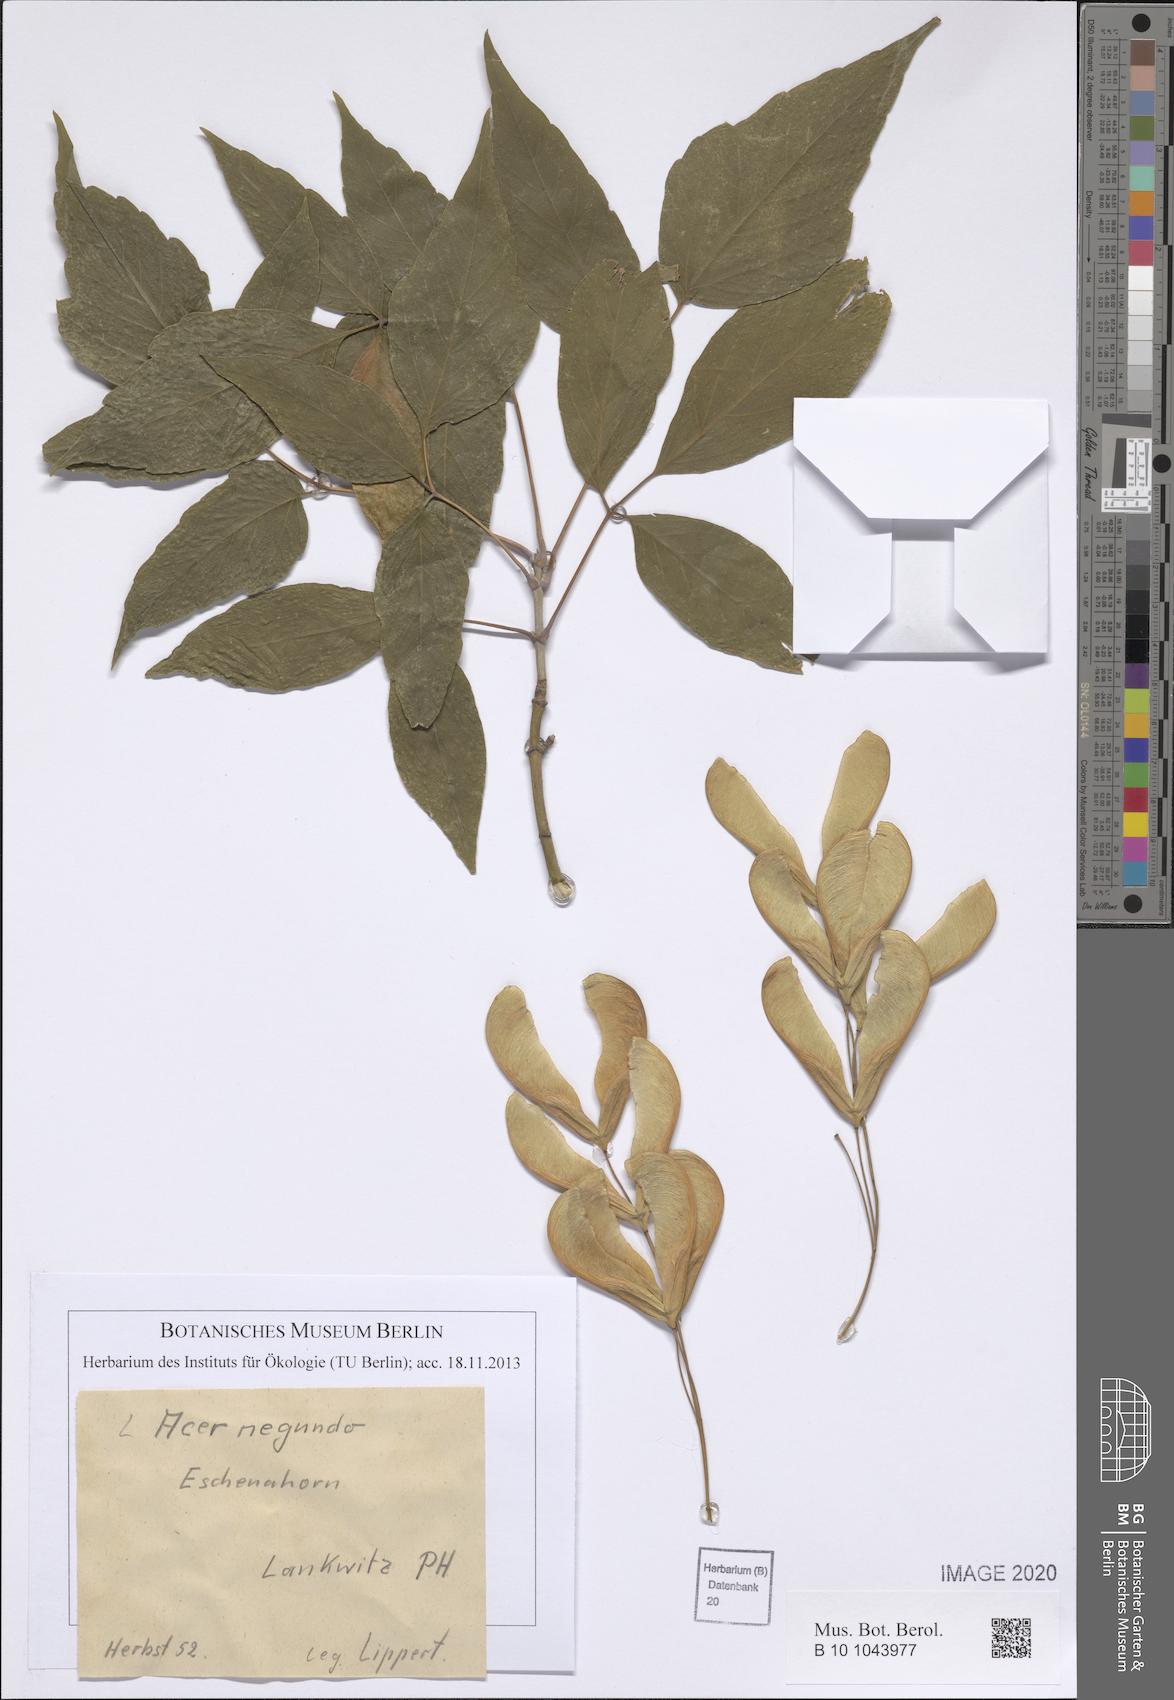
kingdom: Plantae
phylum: Tracheophyta
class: Magnoliopsida
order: Sapindales
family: Sapindaceae
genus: Acer
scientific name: Acer negundo
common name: Ashleaf maple
